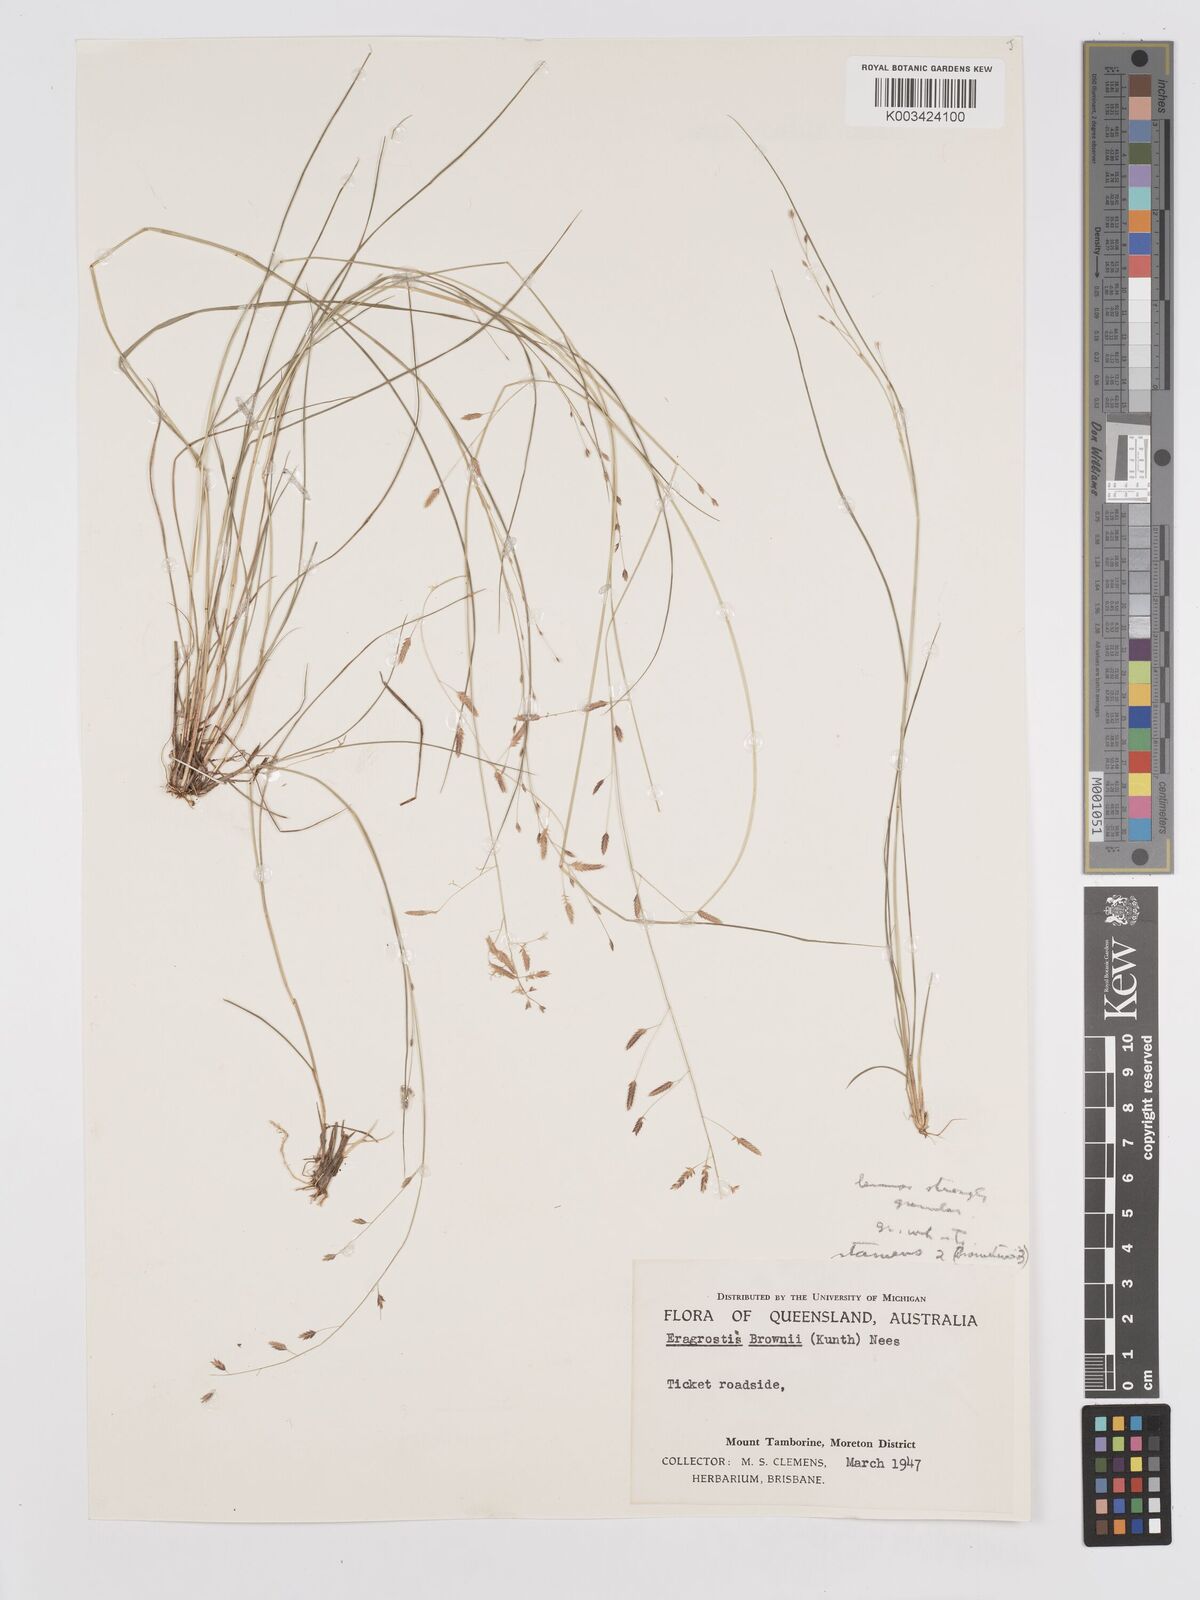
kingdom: Plantae
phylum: Tracheophyta
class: Liliopsida
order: Poales
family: Poaceae
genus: Eragrostis
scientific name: Eragrostis brownii
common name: Lovegrass
